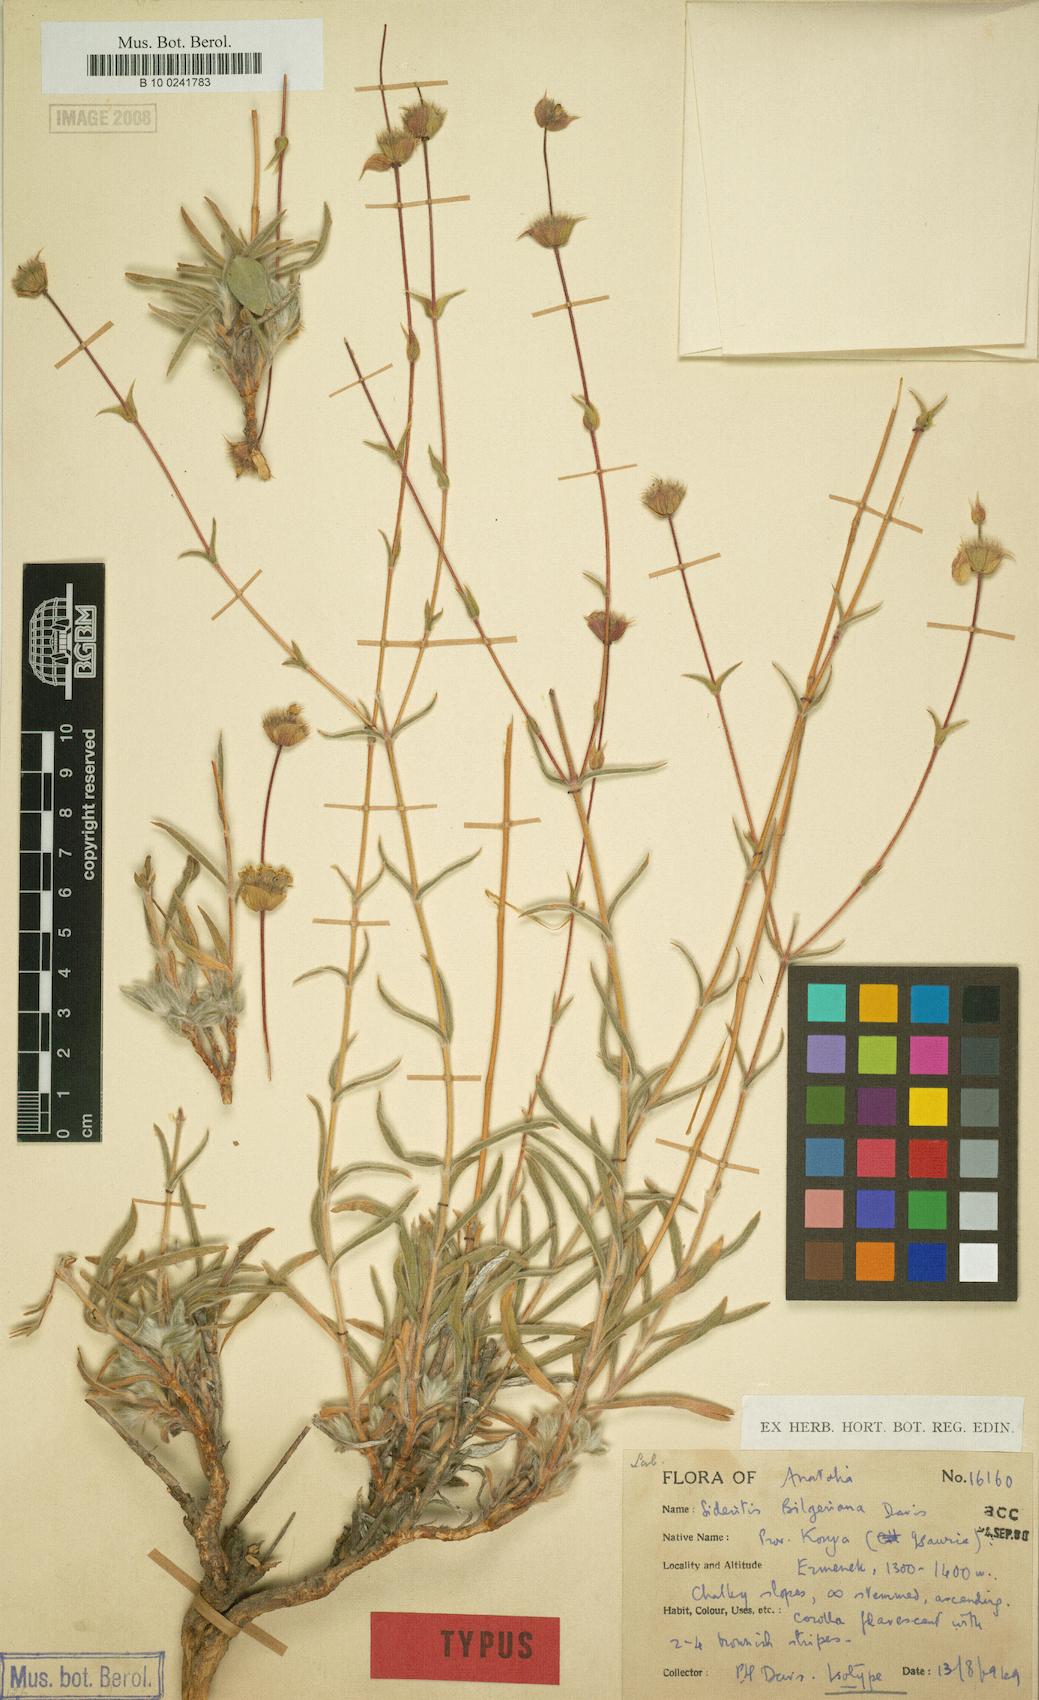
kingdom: Plantae
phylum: Tracheophyta
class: Magnoliopsida
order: Lamiales
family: Lamiaceae
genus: Sideritis
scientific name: Sideritis bilgeriana
